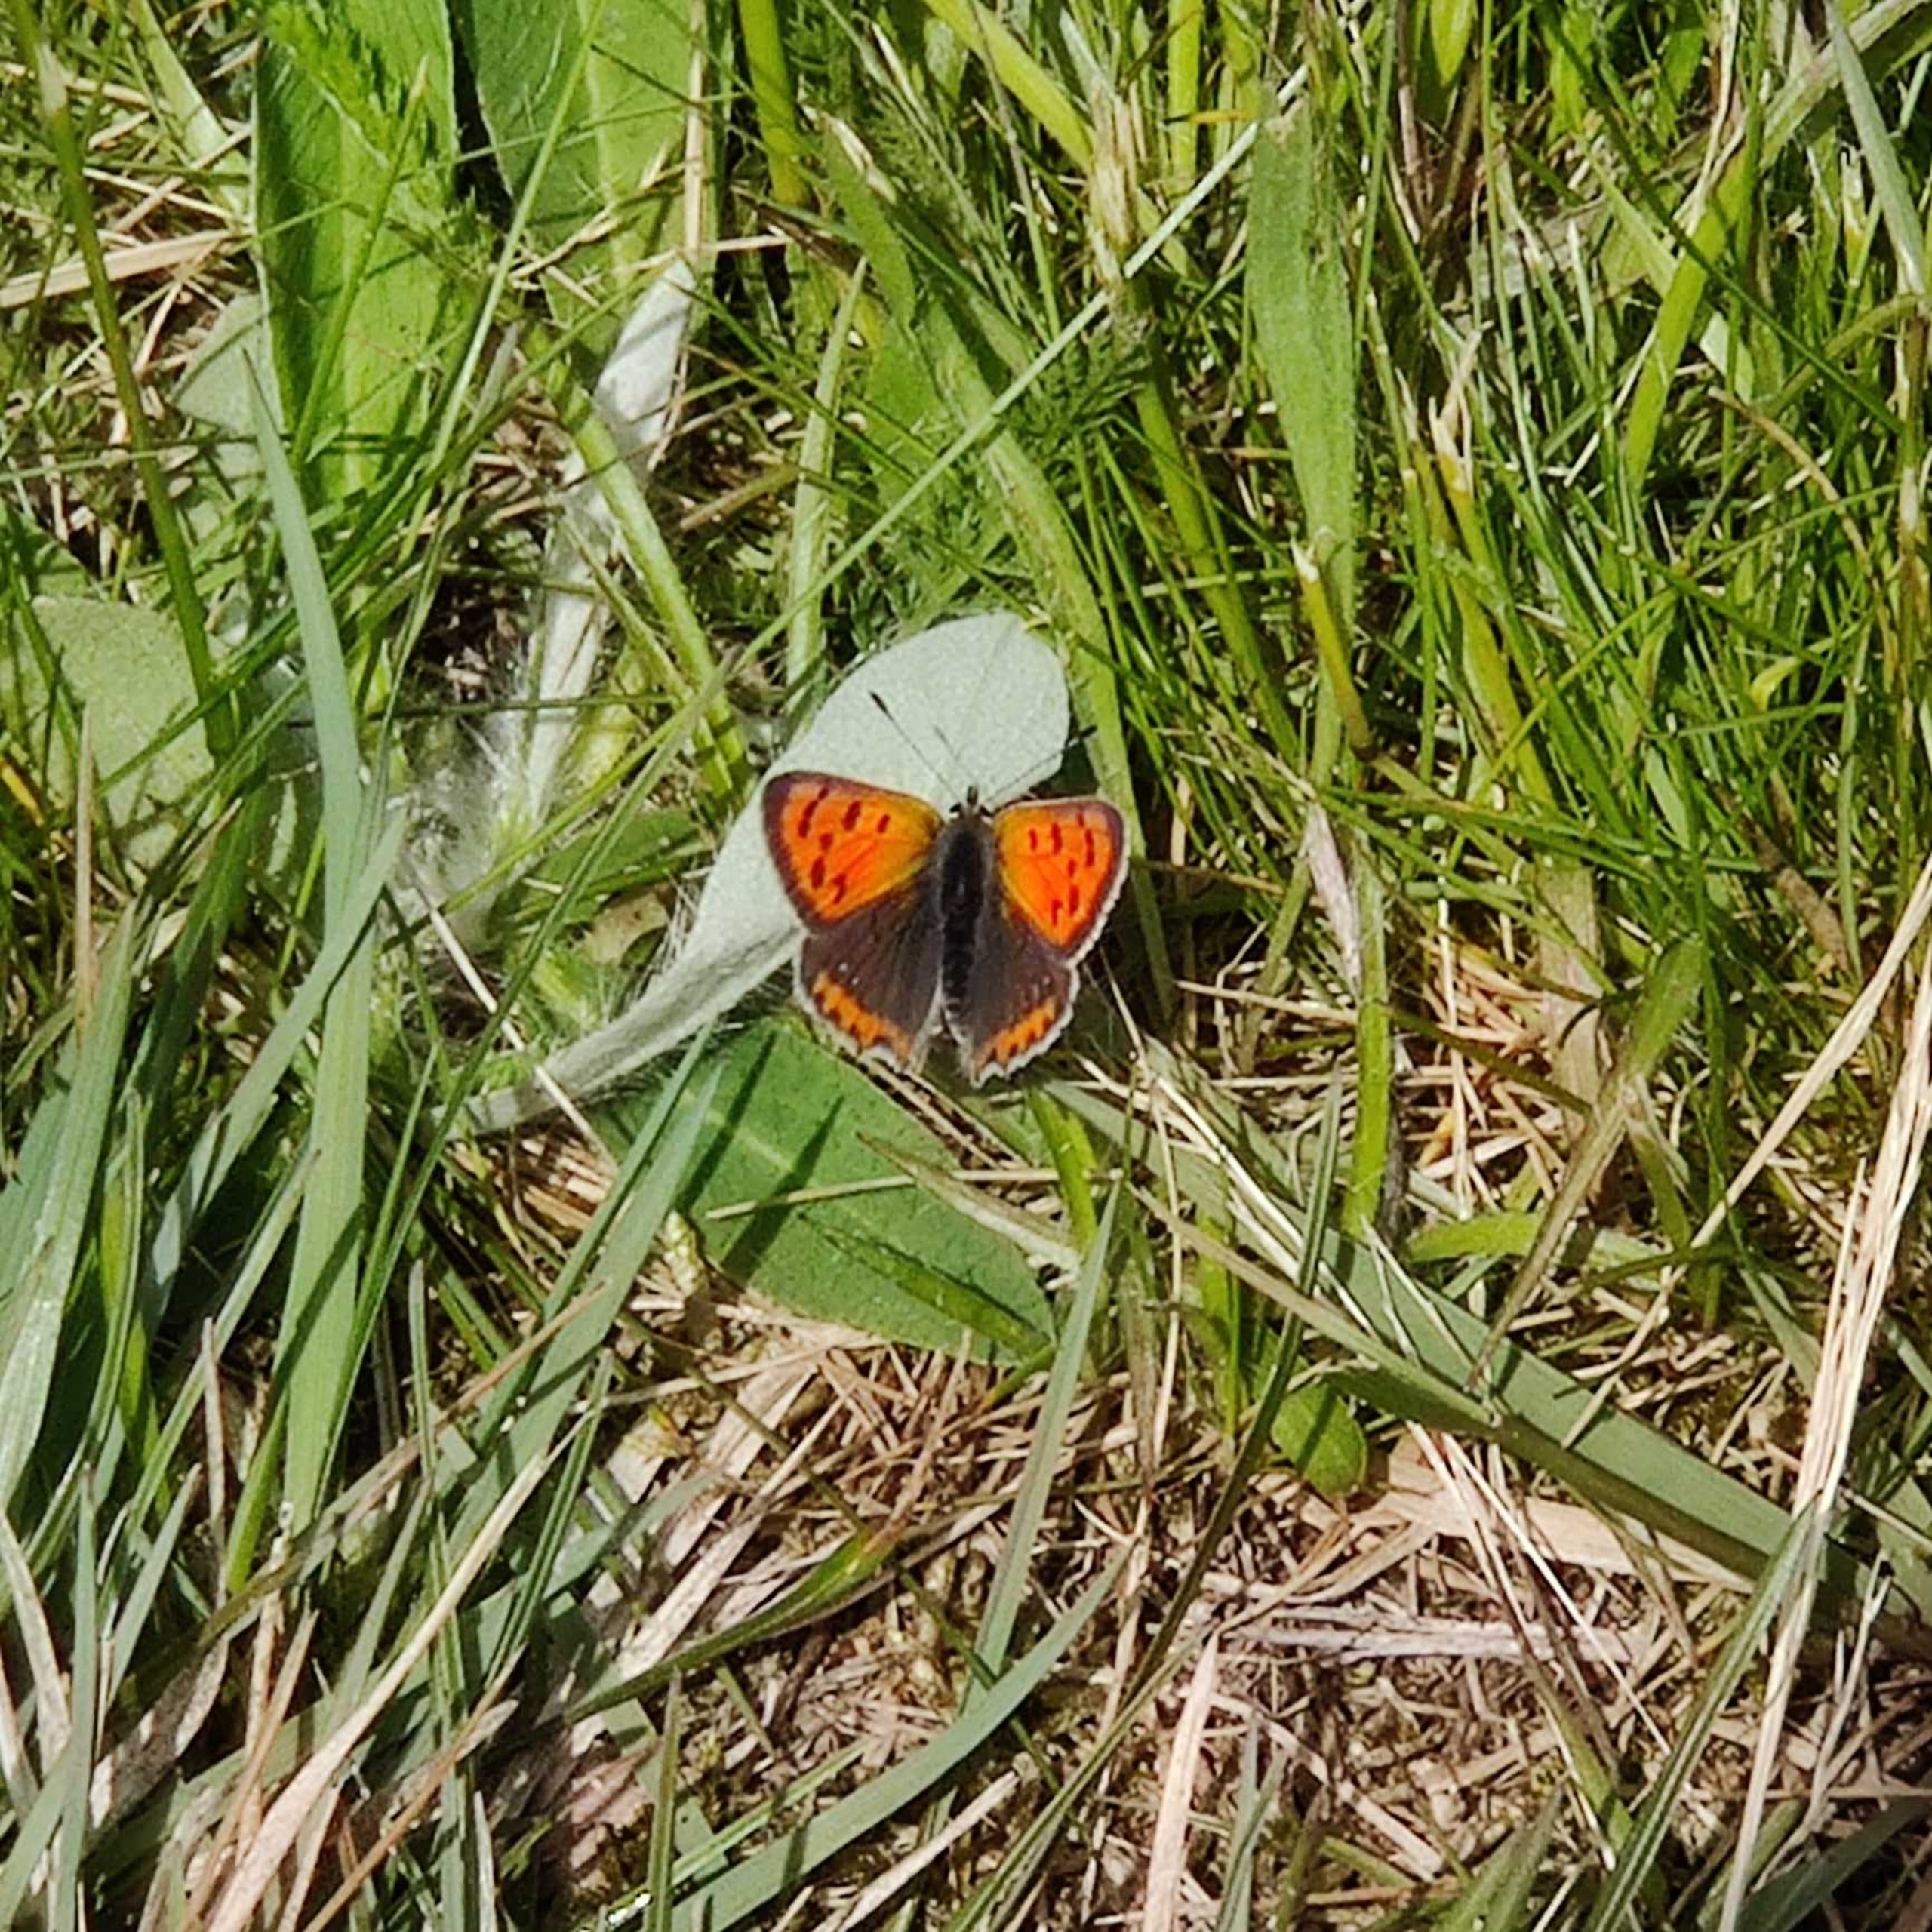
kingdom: Animalia
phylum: Arthropoda
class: Insecta
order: Lepidoptera
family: Lycaenidae
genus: Lycaena
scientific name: Lycaena phlaeas
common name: Lille ildfugl
